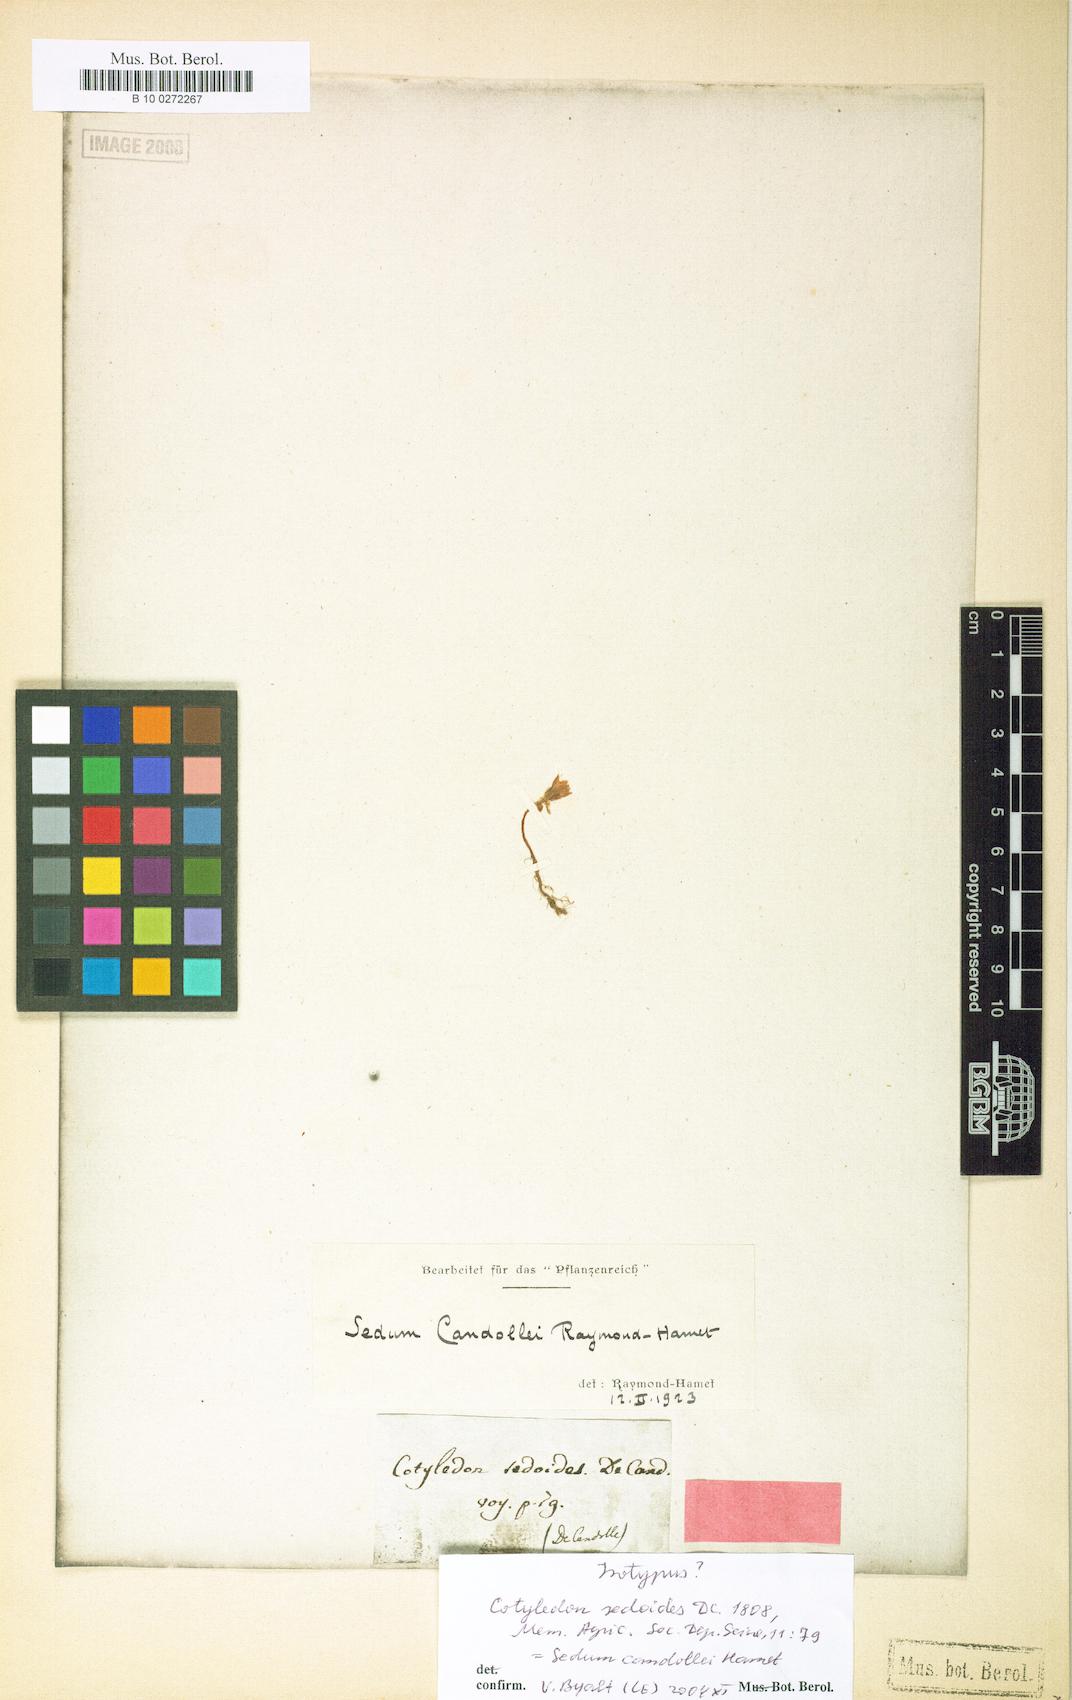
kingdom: Plantae
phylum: Tracheophyta
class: Magnoliopsida
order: Saxifragales
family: Crassulaceae
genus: Sedum
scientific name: Sedum candollei
